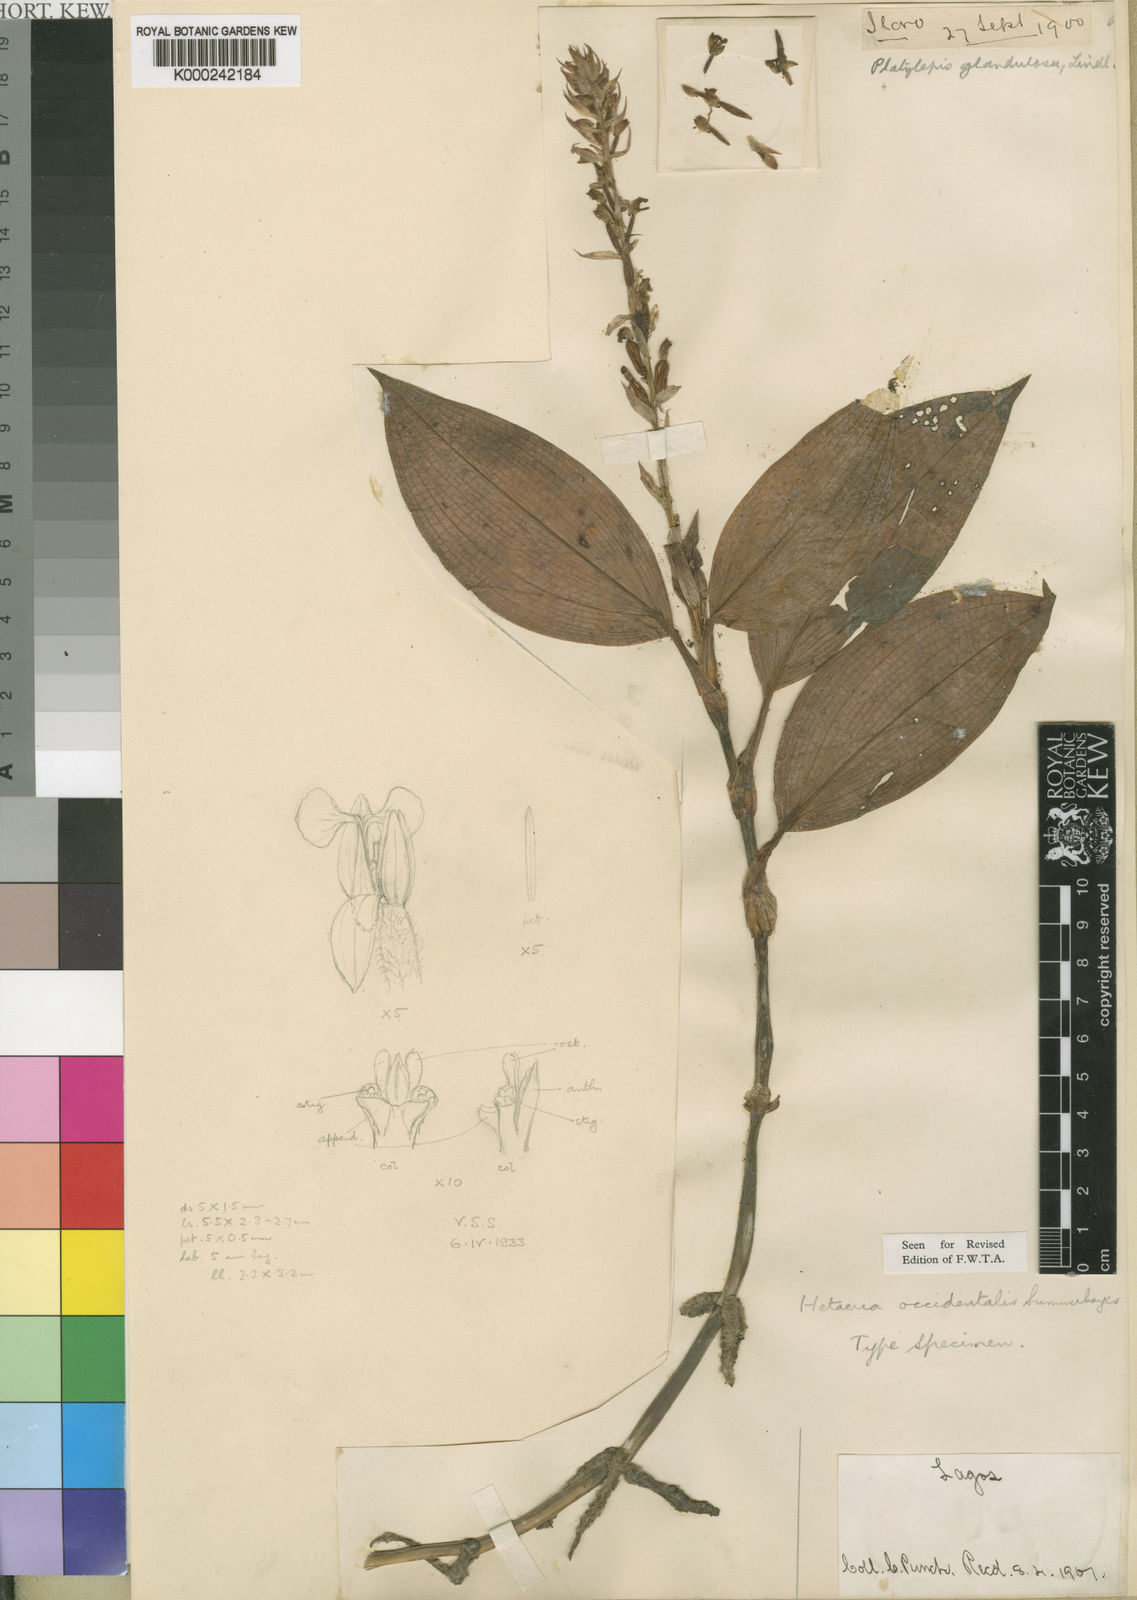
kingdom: Plantae
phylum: Tracheophyta
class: Liliopsida
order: Asparagales
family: Orchidaceae
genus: Hetaeria
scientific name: Hetaeria occidentalis
